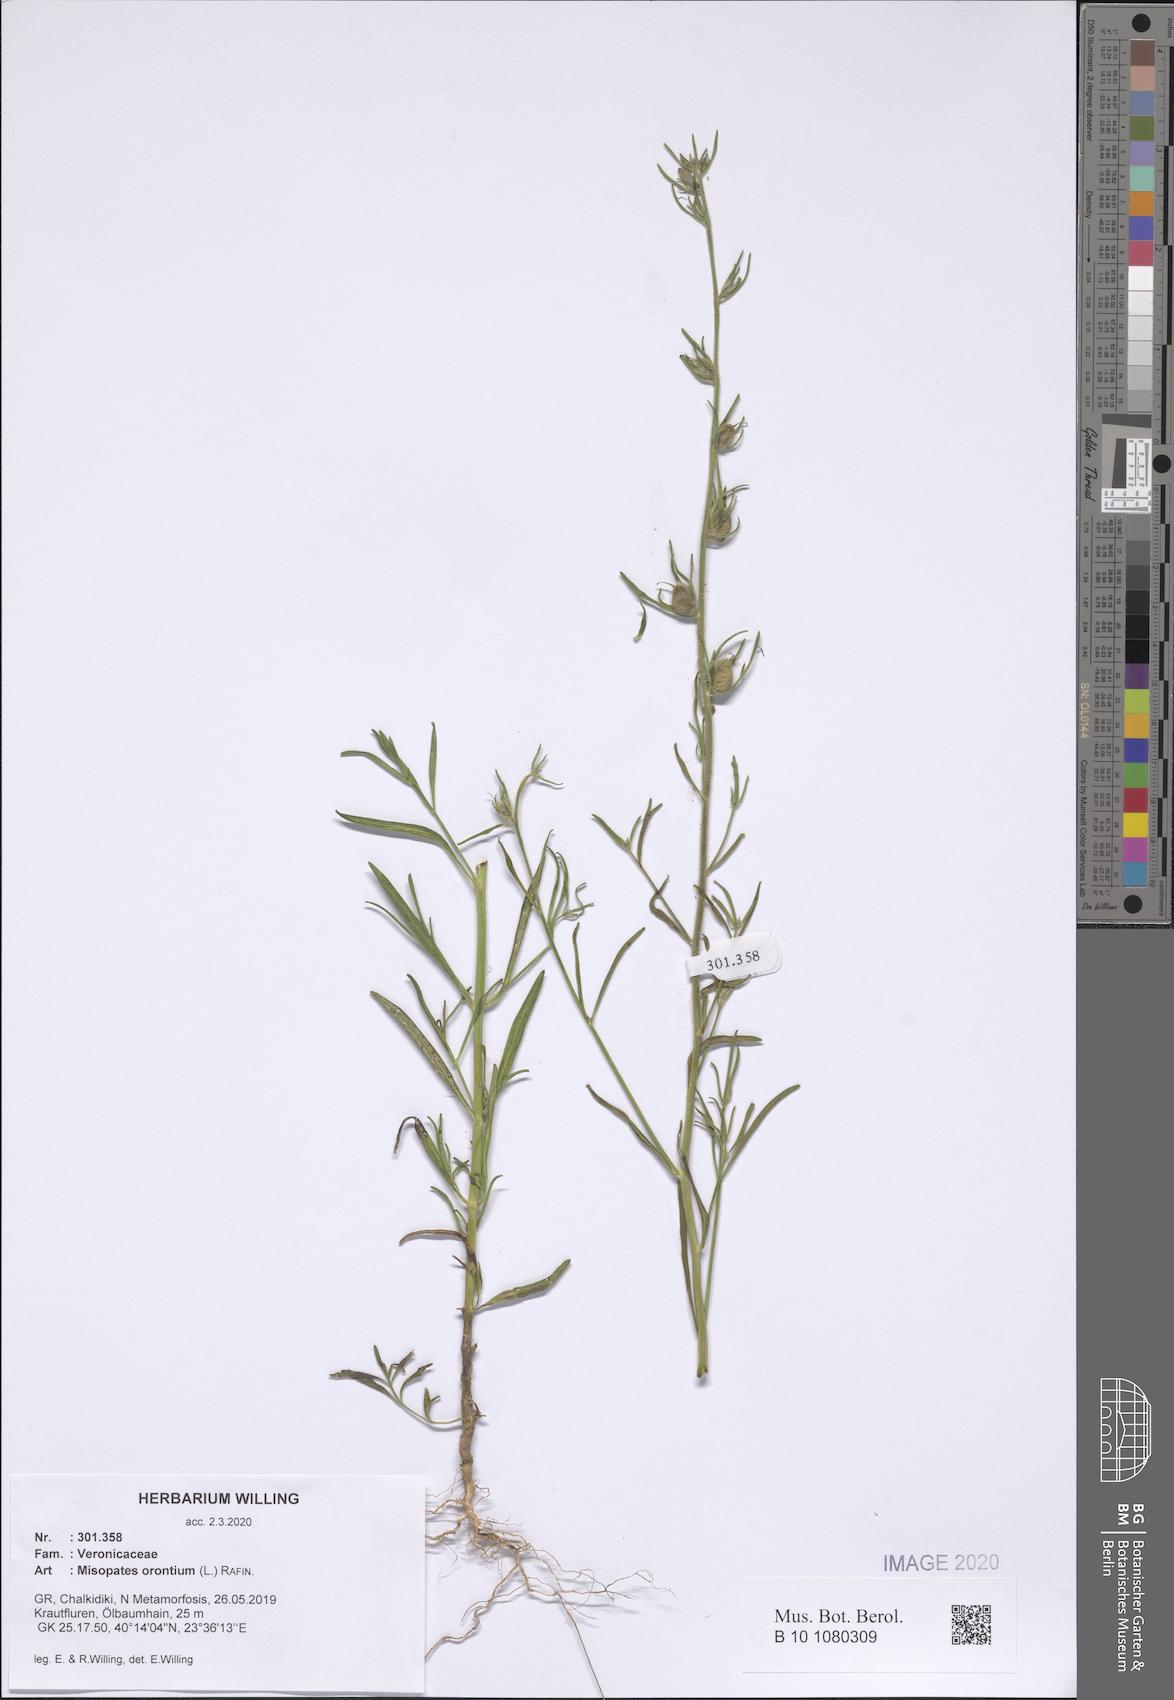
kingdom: Plantae
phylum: Tracheophyta
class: Magnoliopsida
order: Lamiales
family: Plantaginaceae
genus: Misopates
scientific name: Misopates orontium
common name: Weasel's-snout
